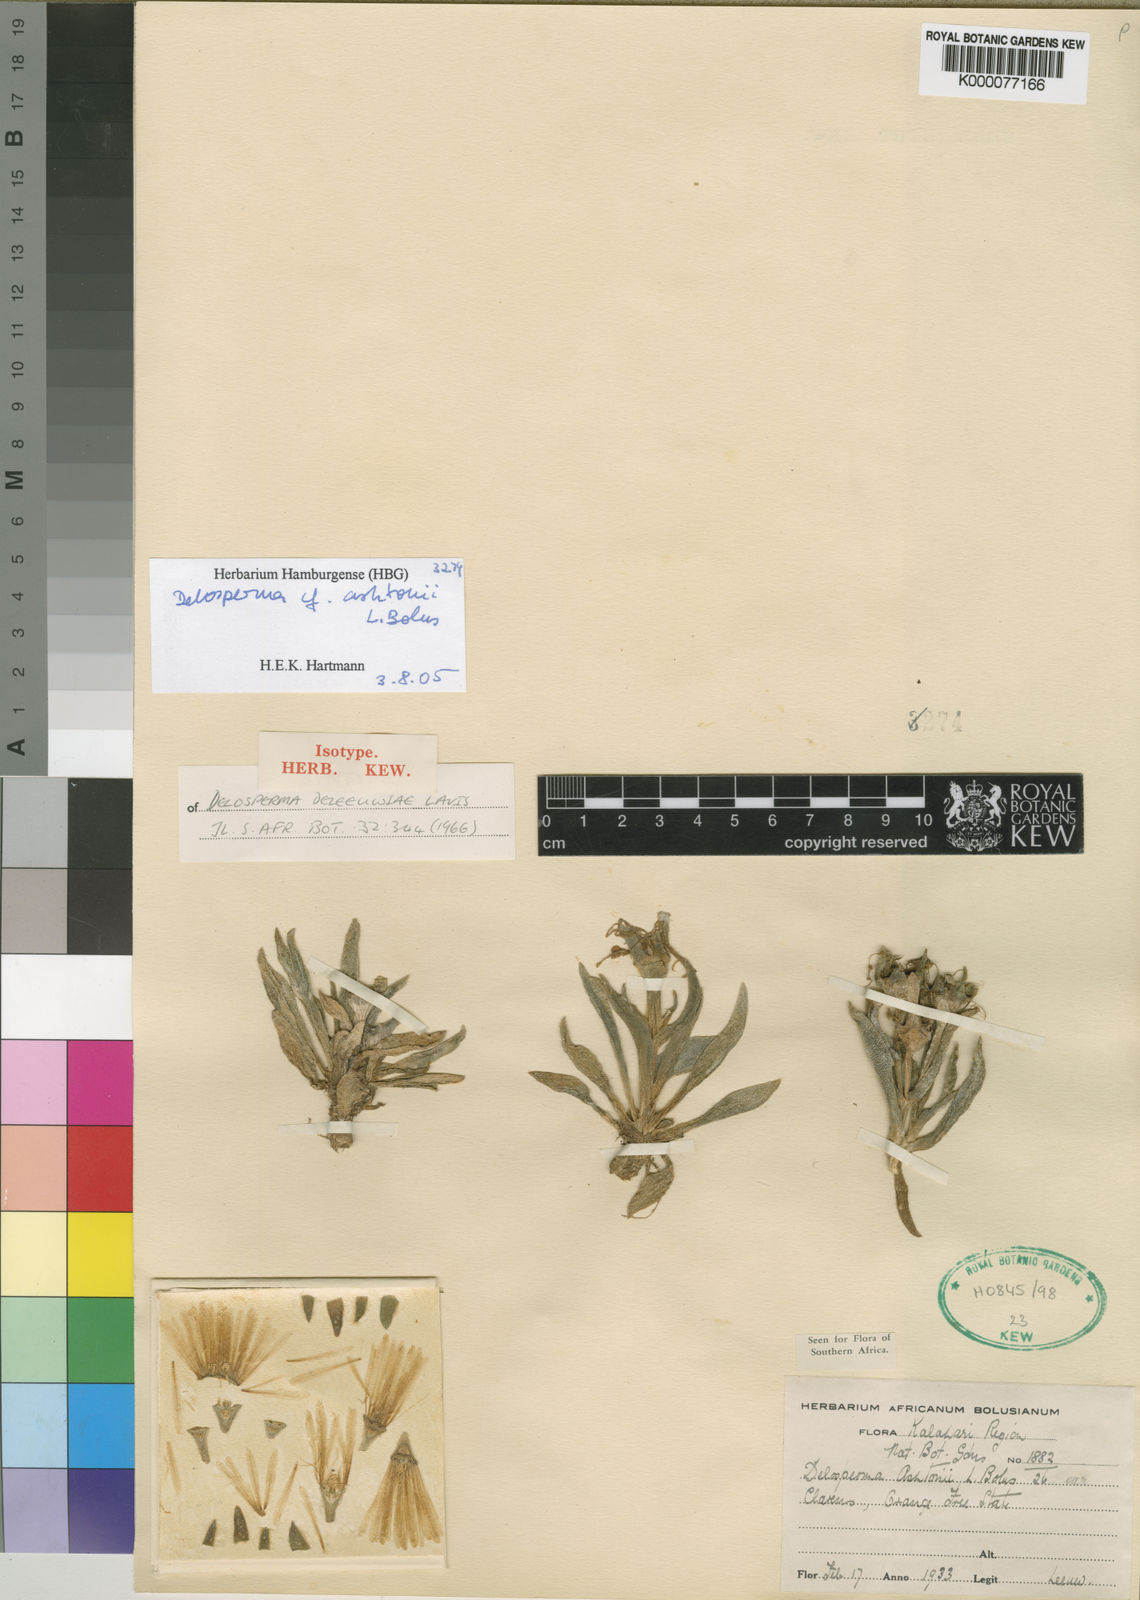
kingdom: Plantae
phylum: Tracheophyta
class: Magnoliopsida
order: Caryophyllales
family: Aizoaceae
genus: Delosperma
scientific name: Delosperma ashtonii
